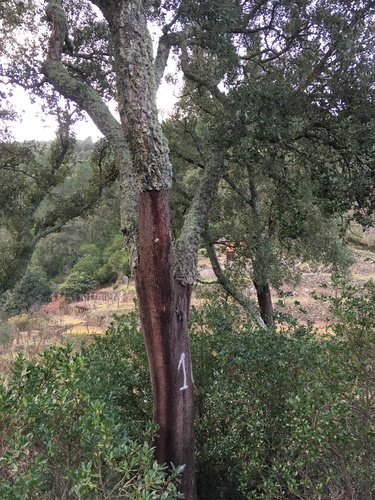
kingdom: Plantae
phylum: Tracheophyta
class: Magnoliopsida
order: Fagales
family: Fagaceae
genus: Quercus
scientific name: Quercus suber
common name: Cork oak
